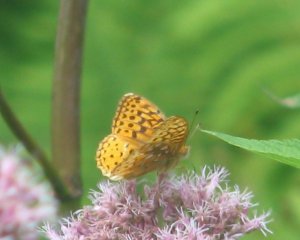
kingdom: Animalia
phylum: Arthropoda
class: Insecta
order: Lepidoptera
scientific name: Lepidoptera
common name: Butterflies
